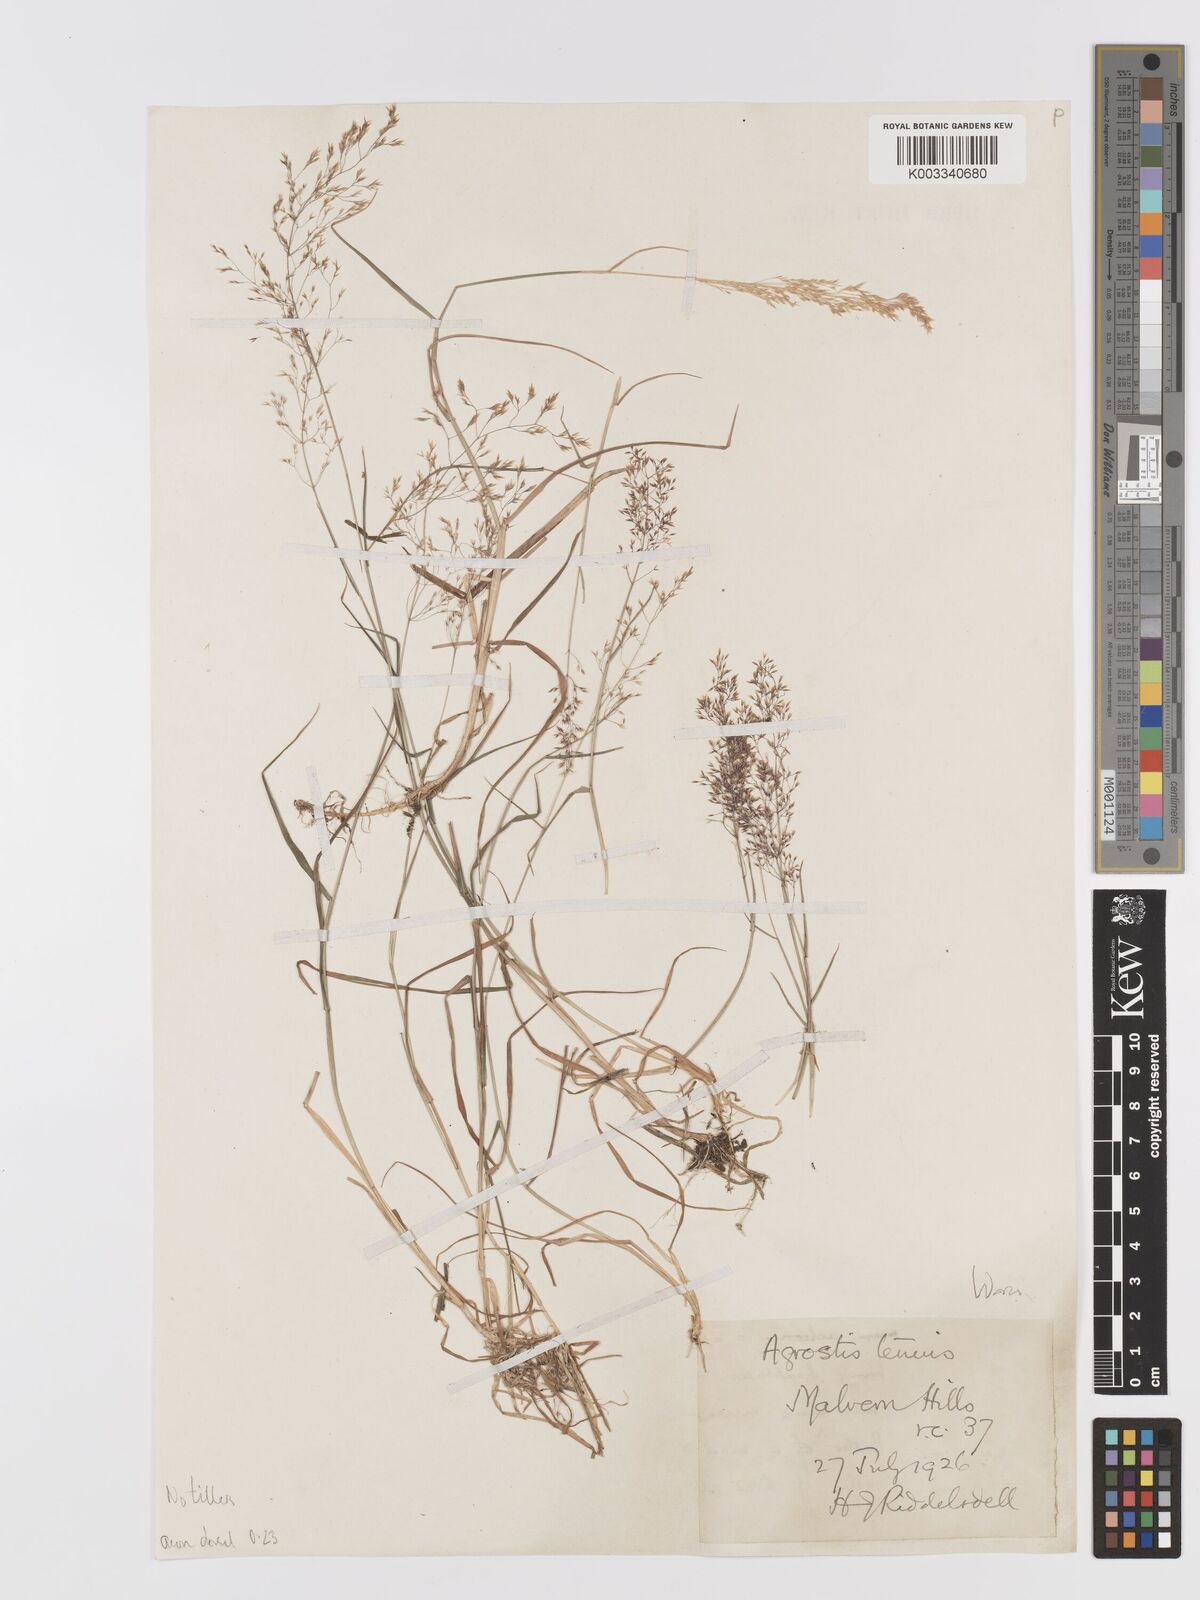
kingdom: Plantae
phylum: Tracheophyta
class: Liliopsida
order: Poales
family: Poaceae
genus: Agrostis
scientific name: Agrostis capillaris
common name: Colonial bentgrass
